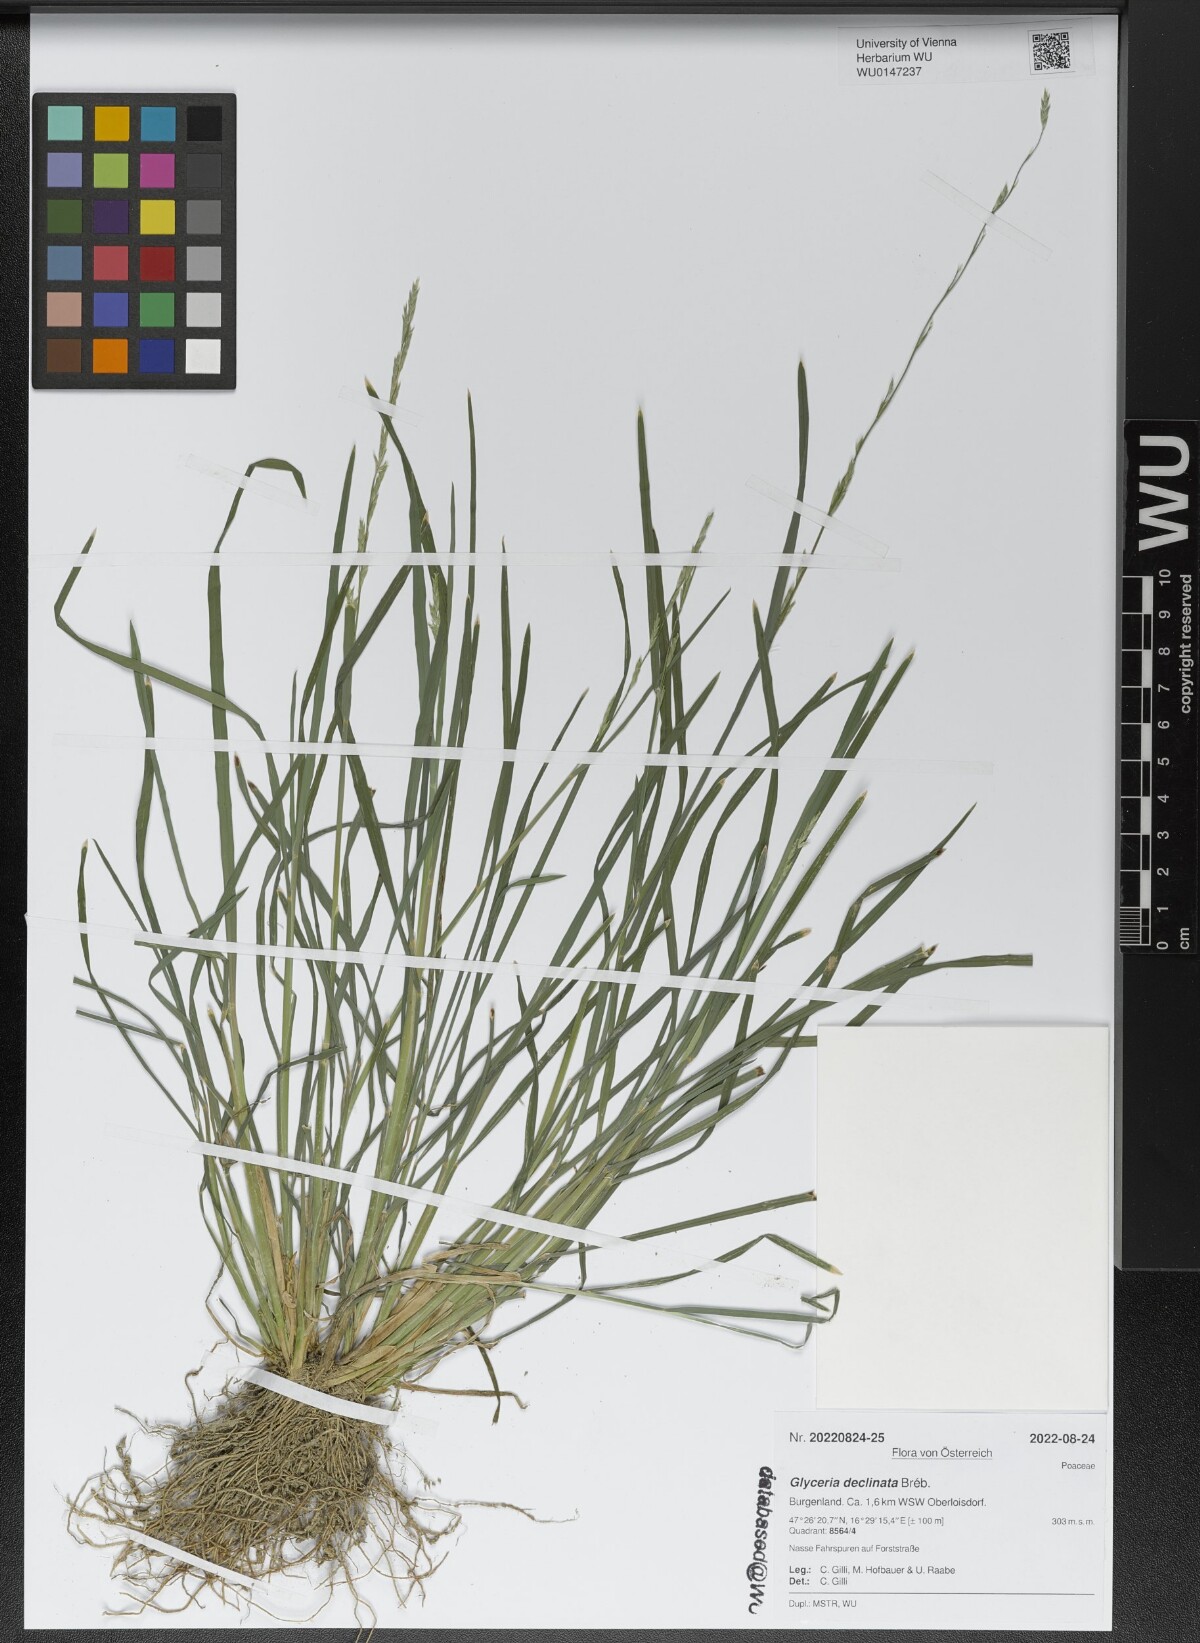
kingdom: Plantae
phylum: Tracheophyta
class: Liliopsida
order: Poales
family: Poaceae
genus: Glyceria
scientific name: Glyceria declinata
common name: Small sweet-grass
